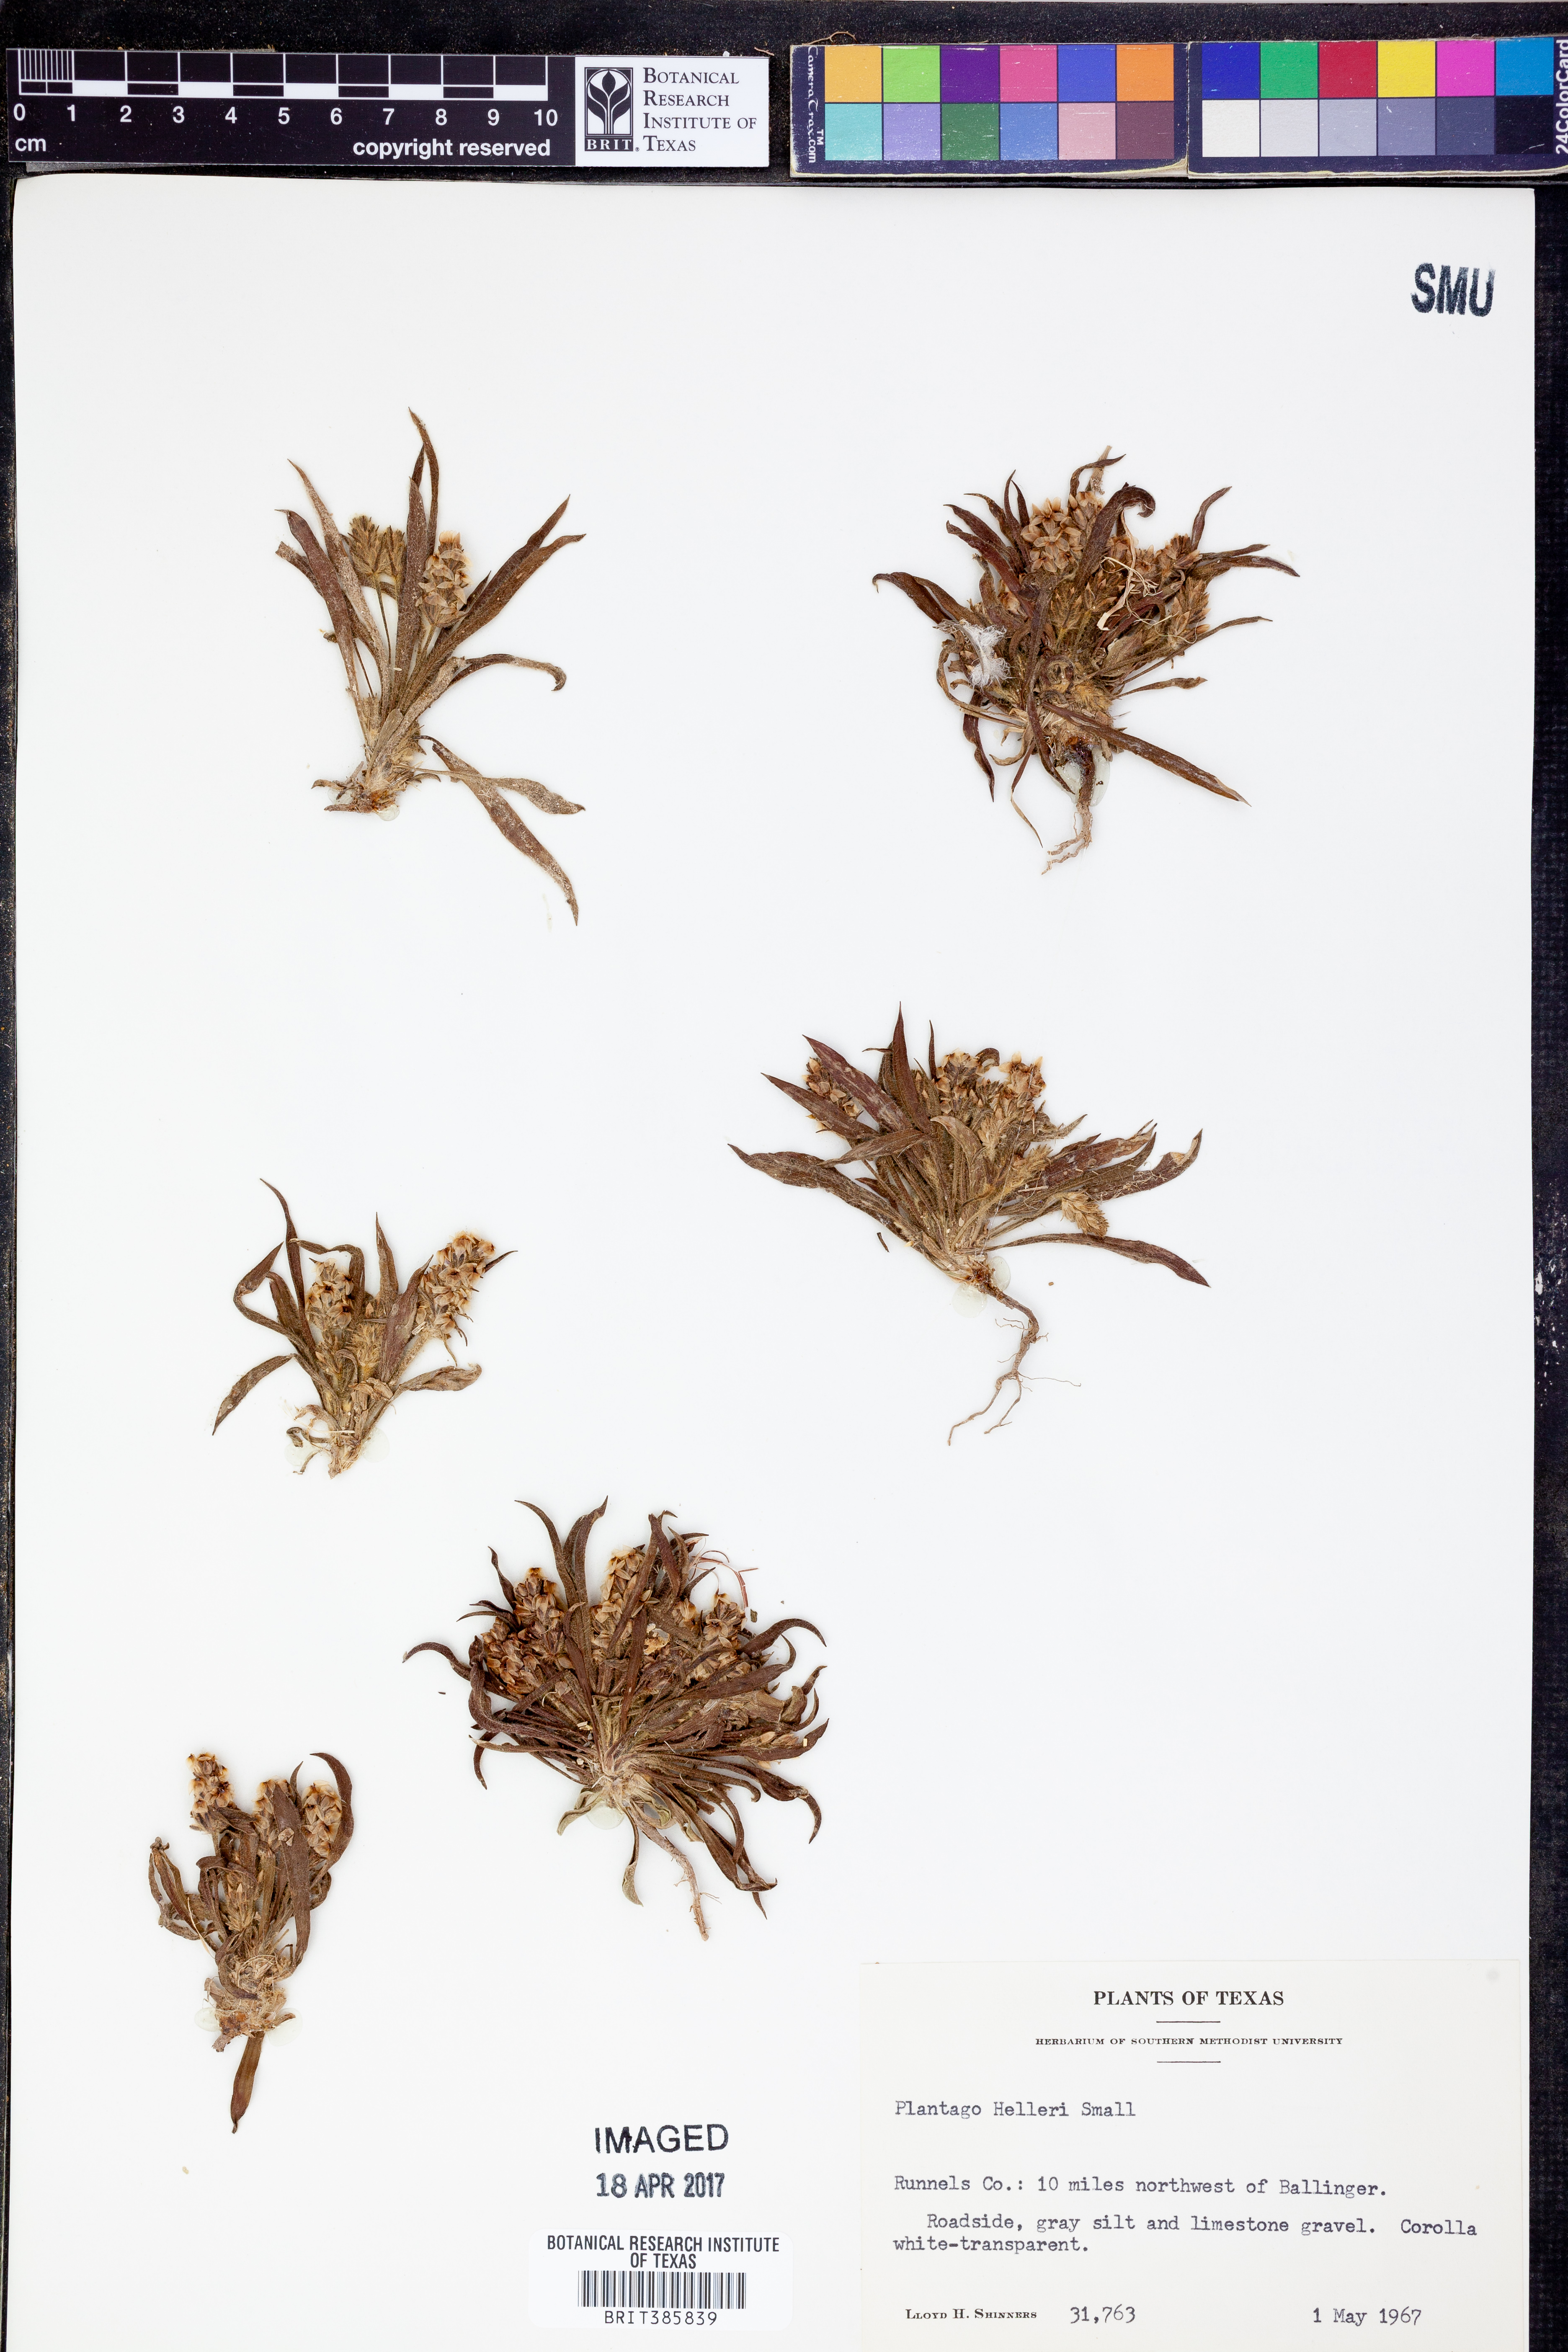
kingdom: Plantae
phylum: Tracheophyta
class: Magnoliopsida
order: Lamiales
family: Plantaginaceae
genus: Plantago
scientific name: Plantago helleri
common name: Heller's plantain
